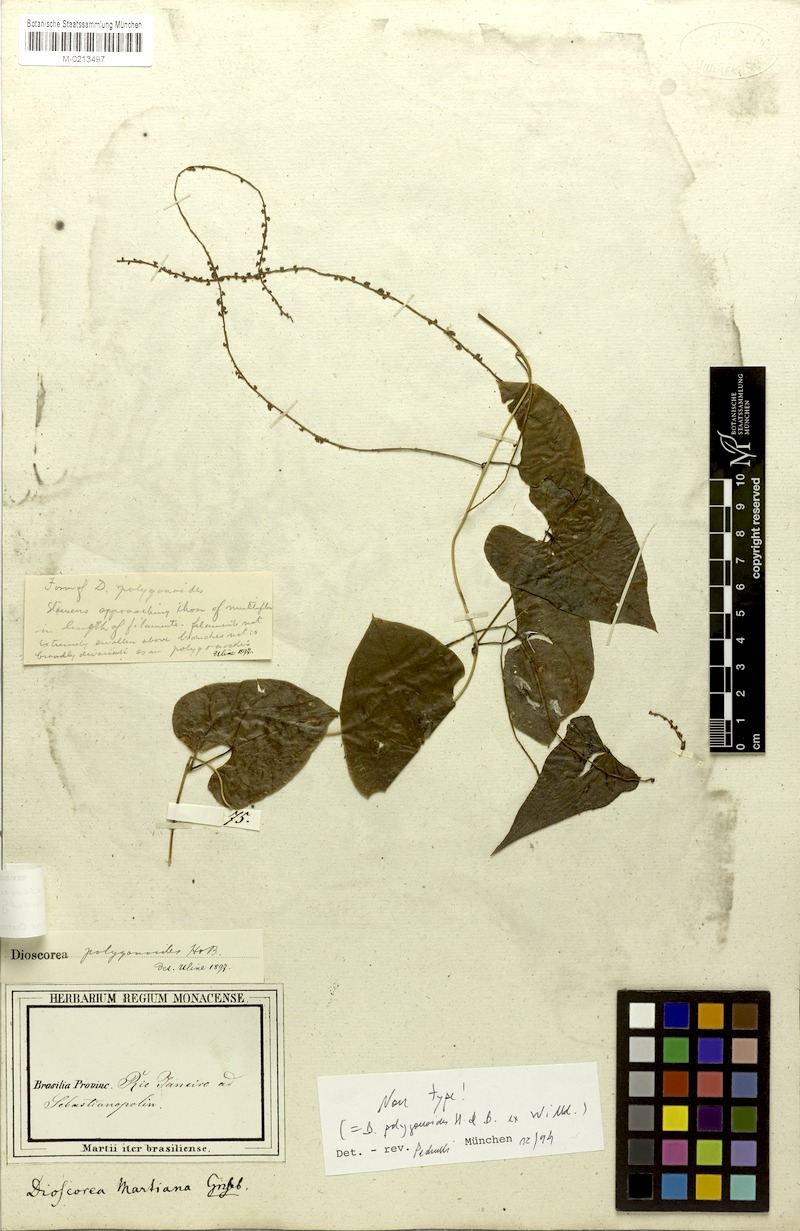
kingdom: Plantae
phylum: Tracheophyta
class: Liliopsida
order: Dioscoreales
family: Dioscoreaceae
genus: Dioscorea
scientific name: Dioscorea martiana
